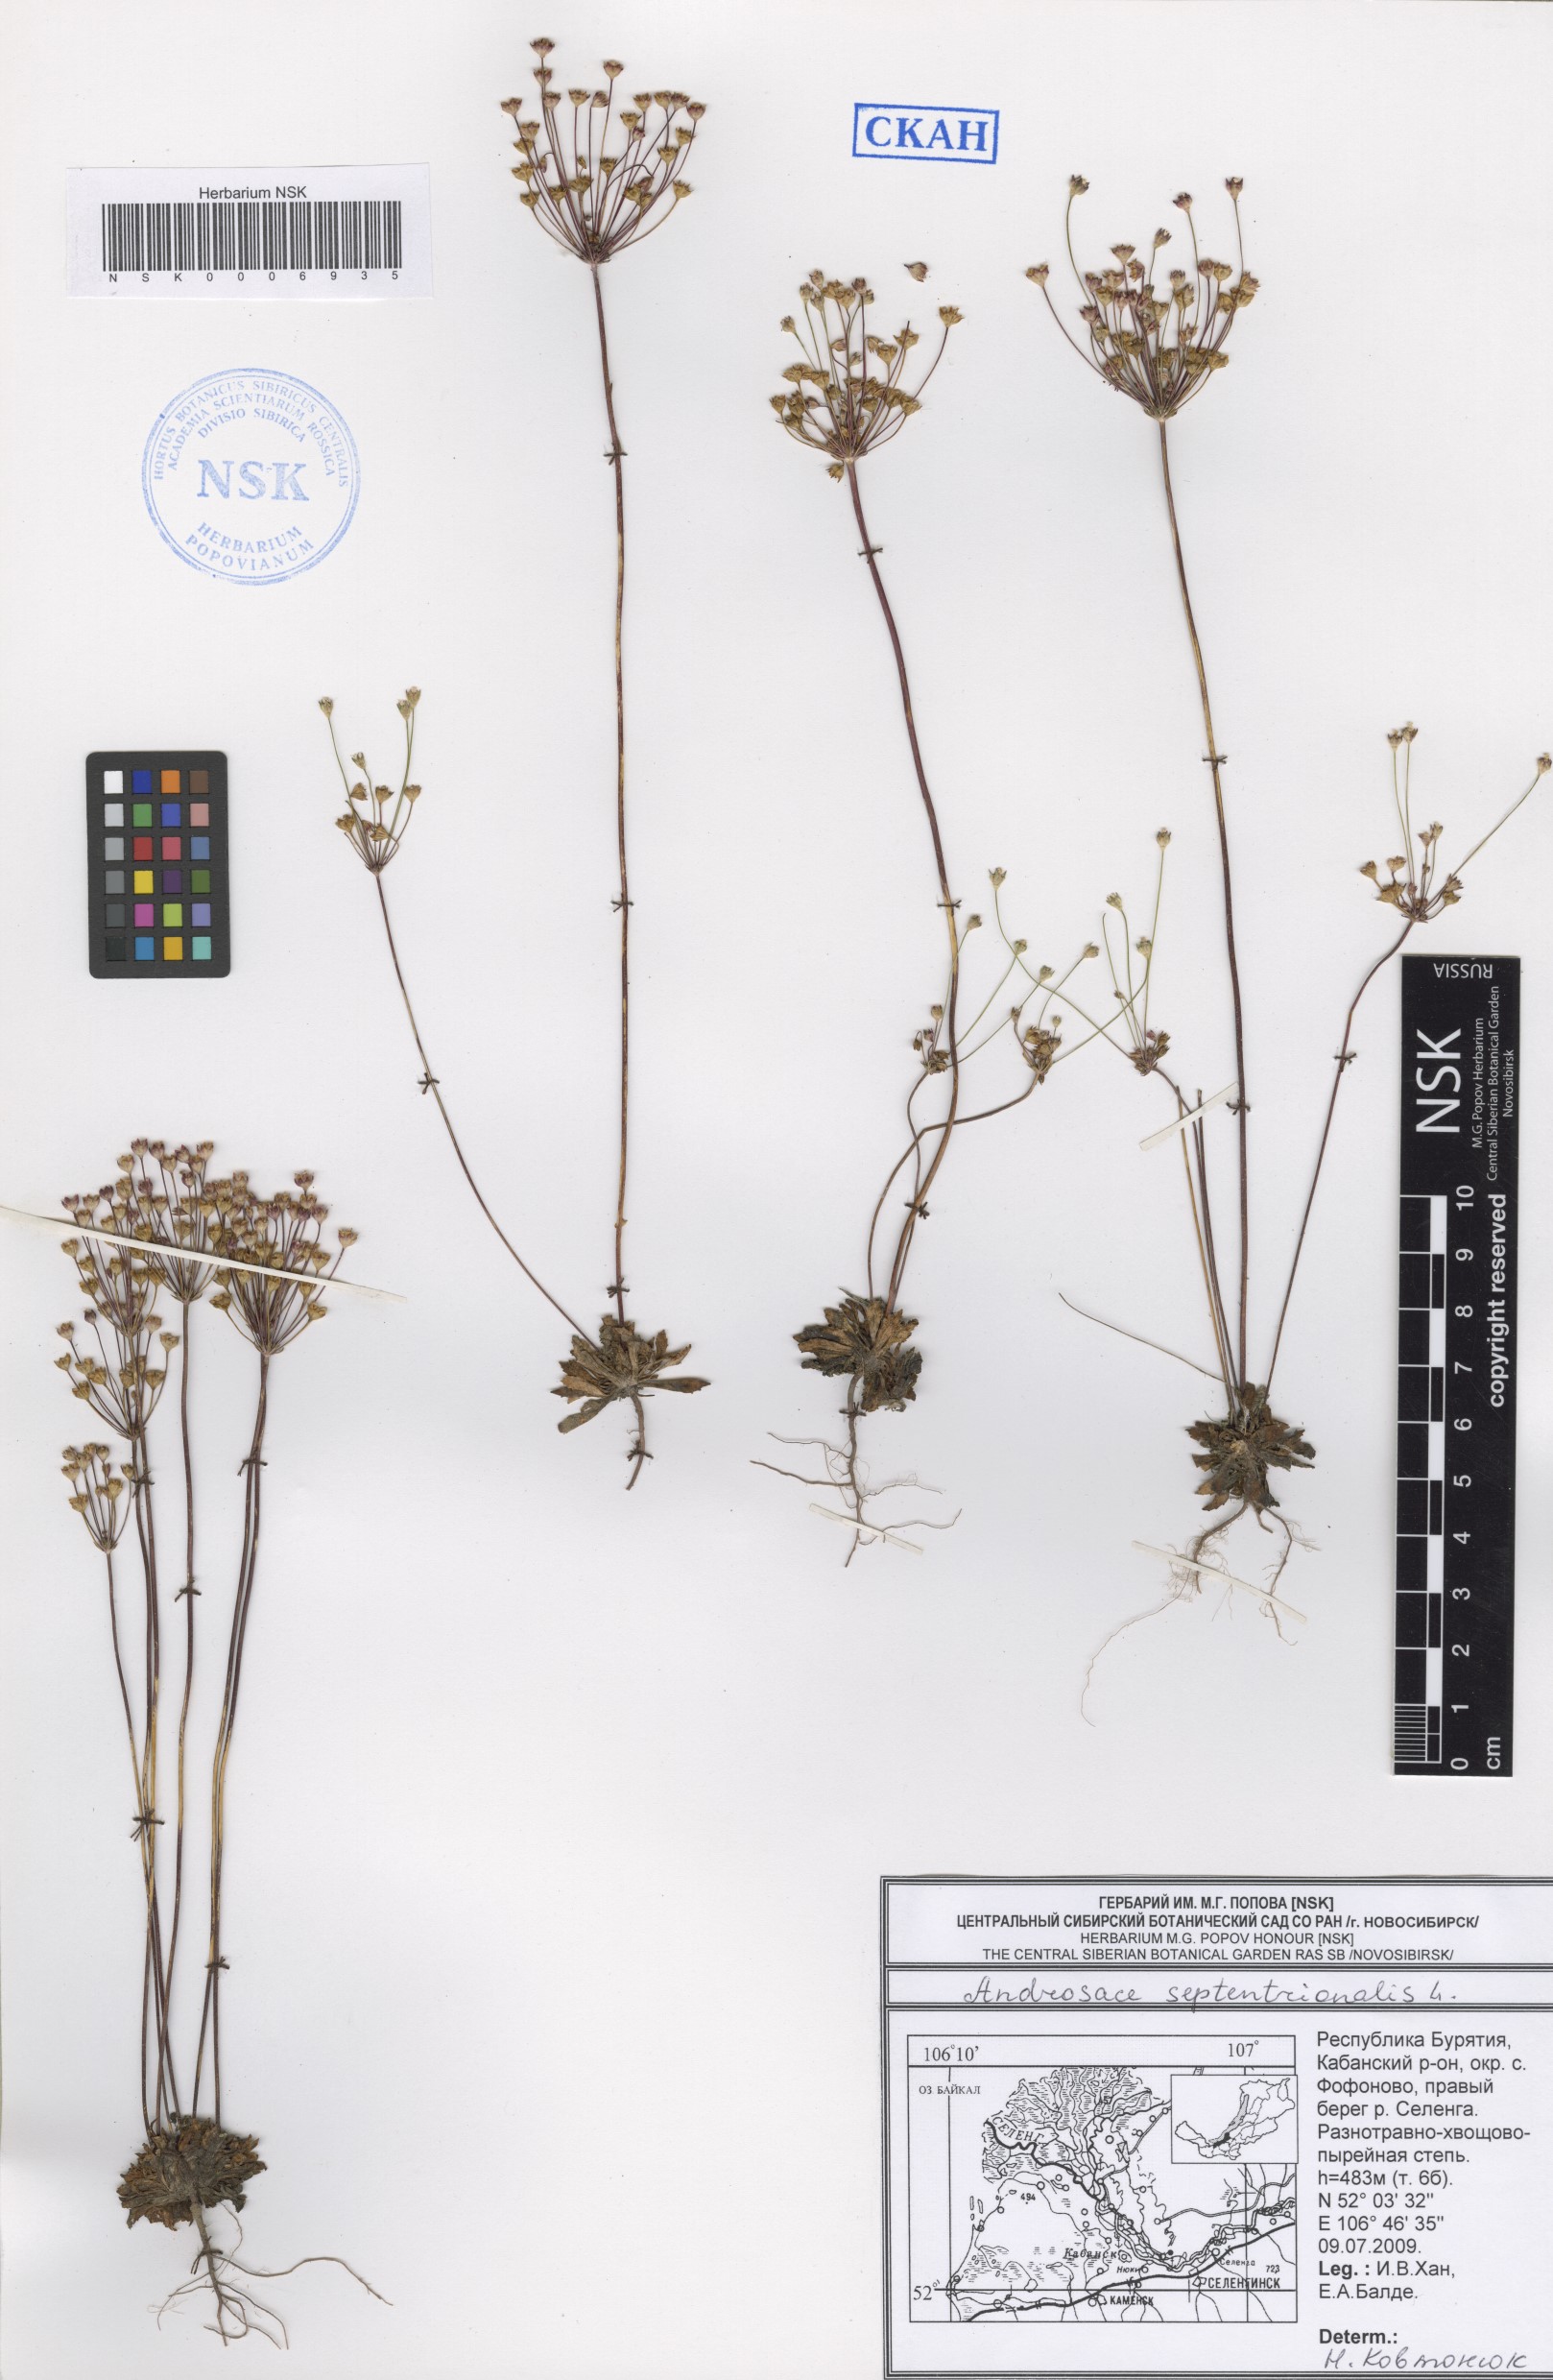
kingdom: Plantae
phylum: Tracheophyta
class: Magnoliopsida
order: Ericales
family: Primulaceae
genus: Androsace
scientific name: Androsace septentrionalis
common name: Hairy northern fairy-candelabra
